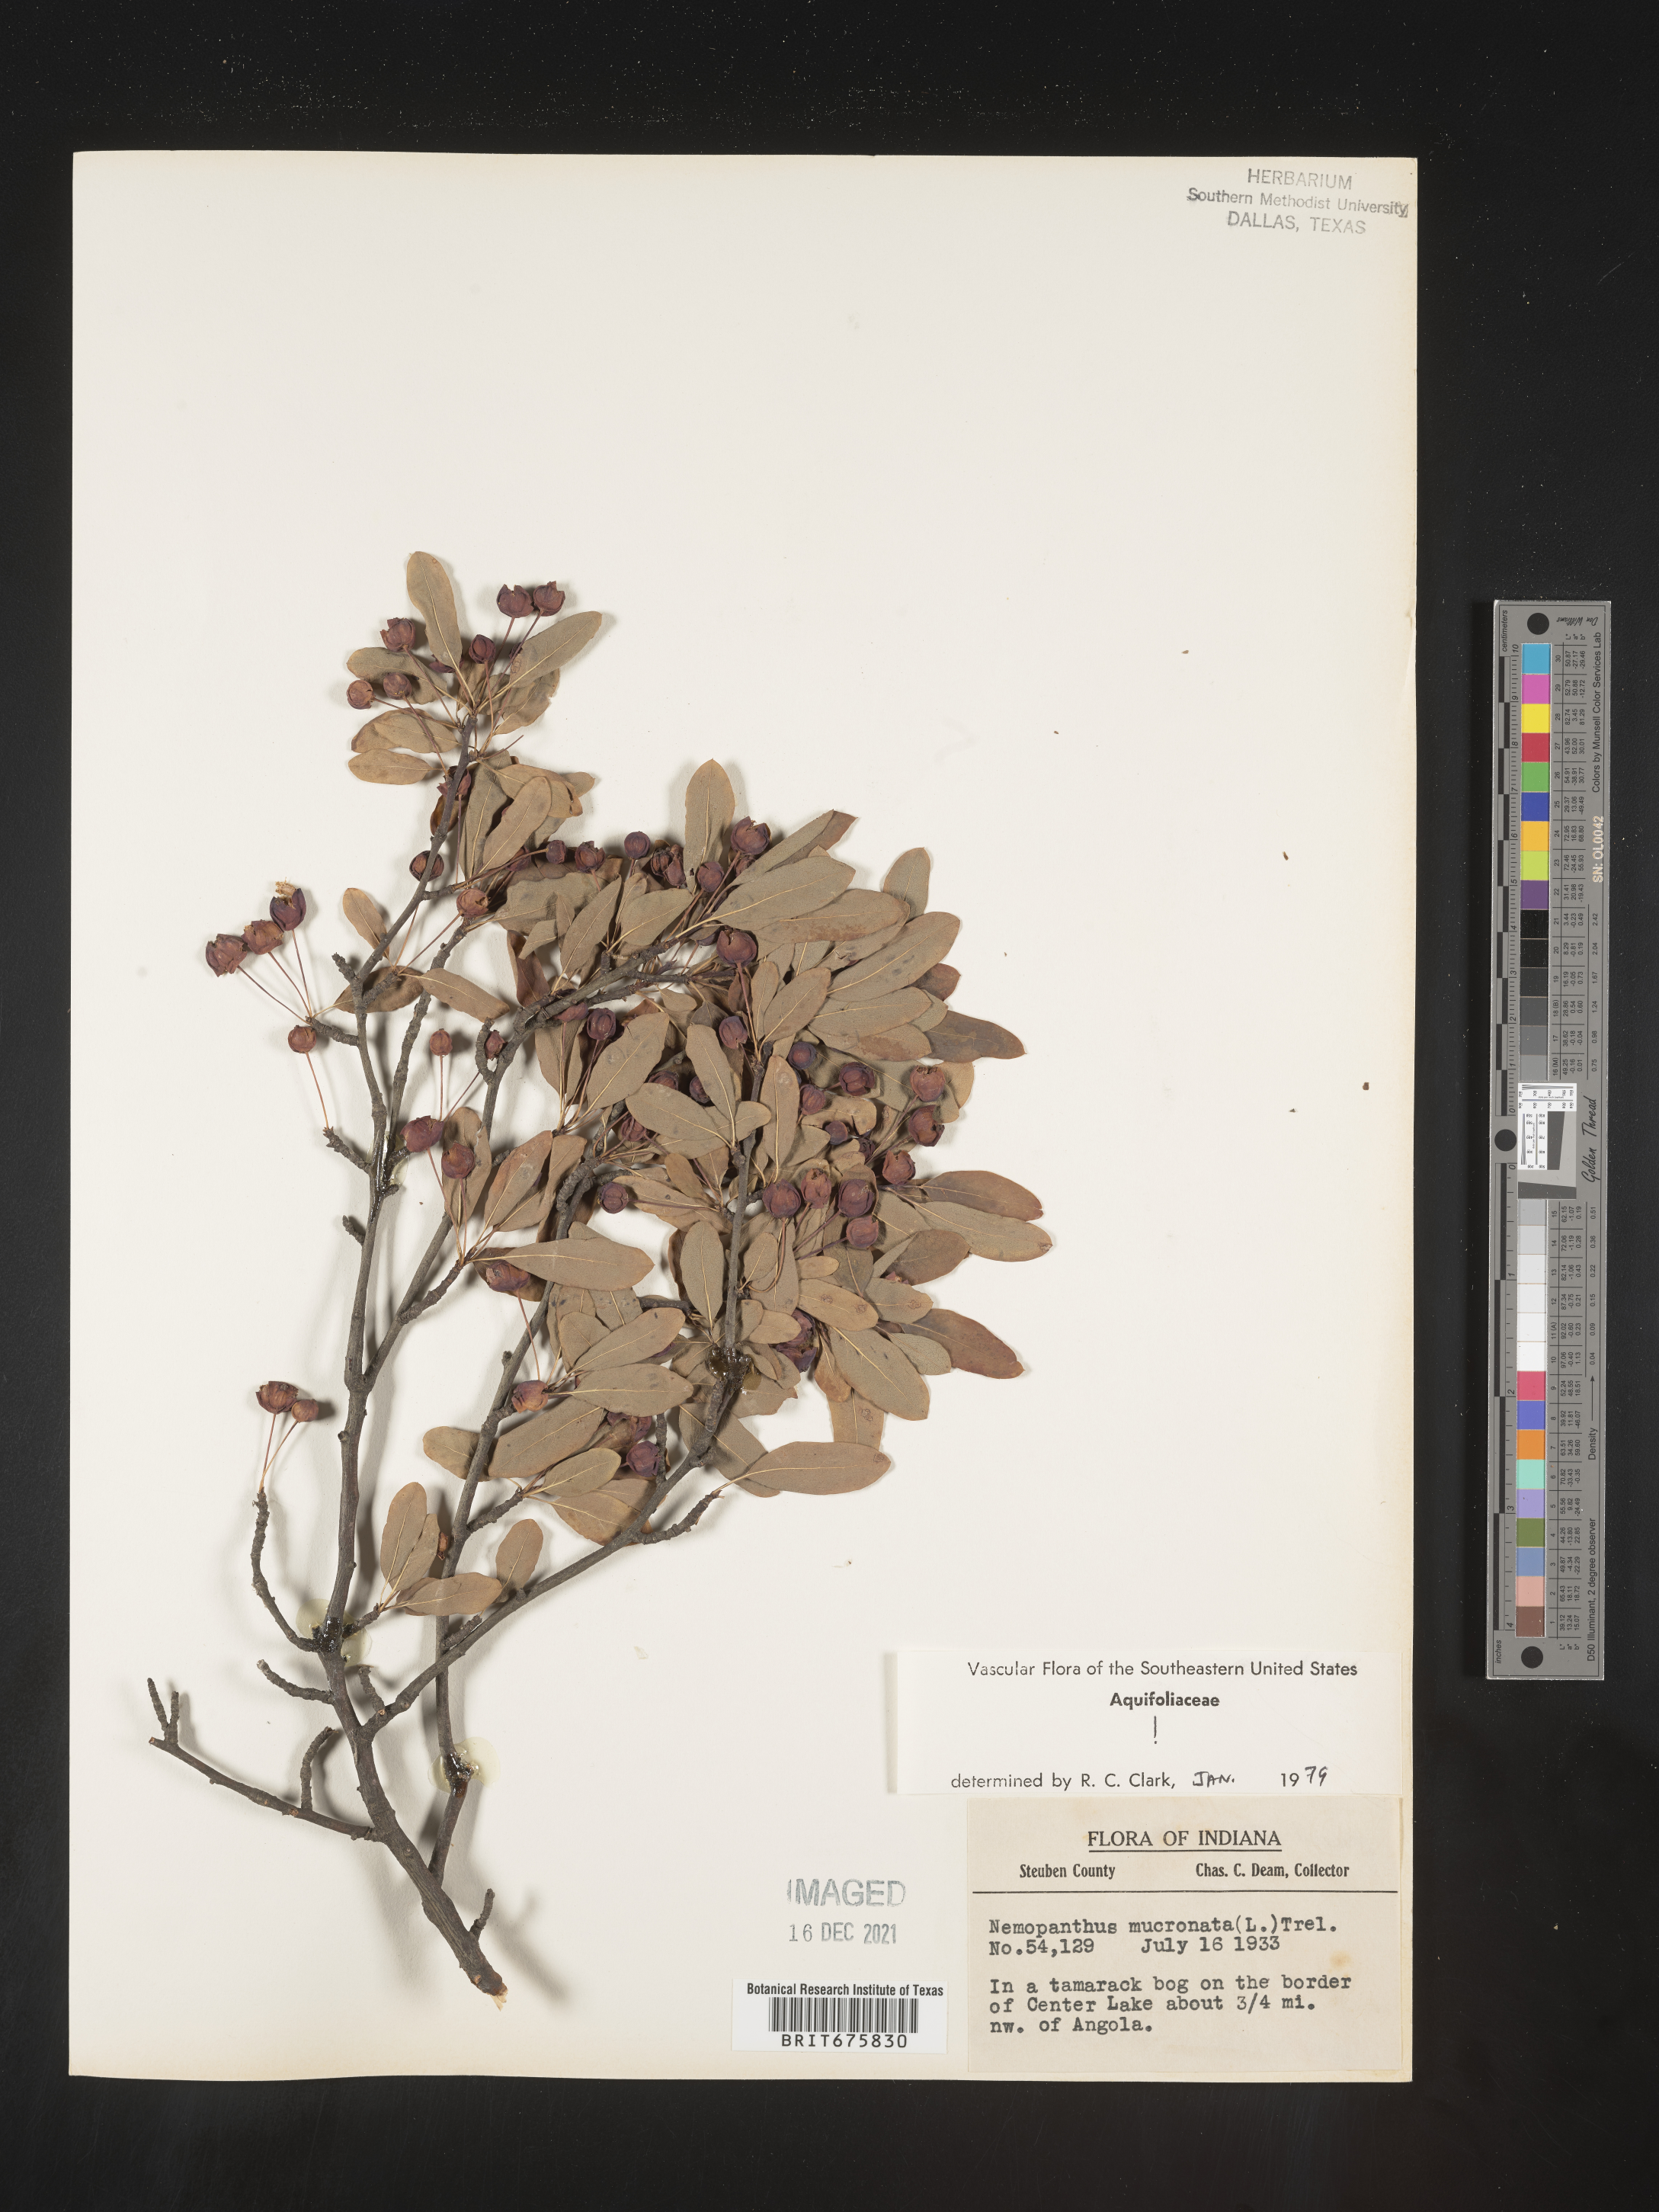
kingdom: Plantae
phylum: Tracheophyta
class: Magnoliopsida
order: Aquifoliales
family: Aquifoliaceae
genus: Ilex
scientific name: Ilex mucronata
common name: Catberry
